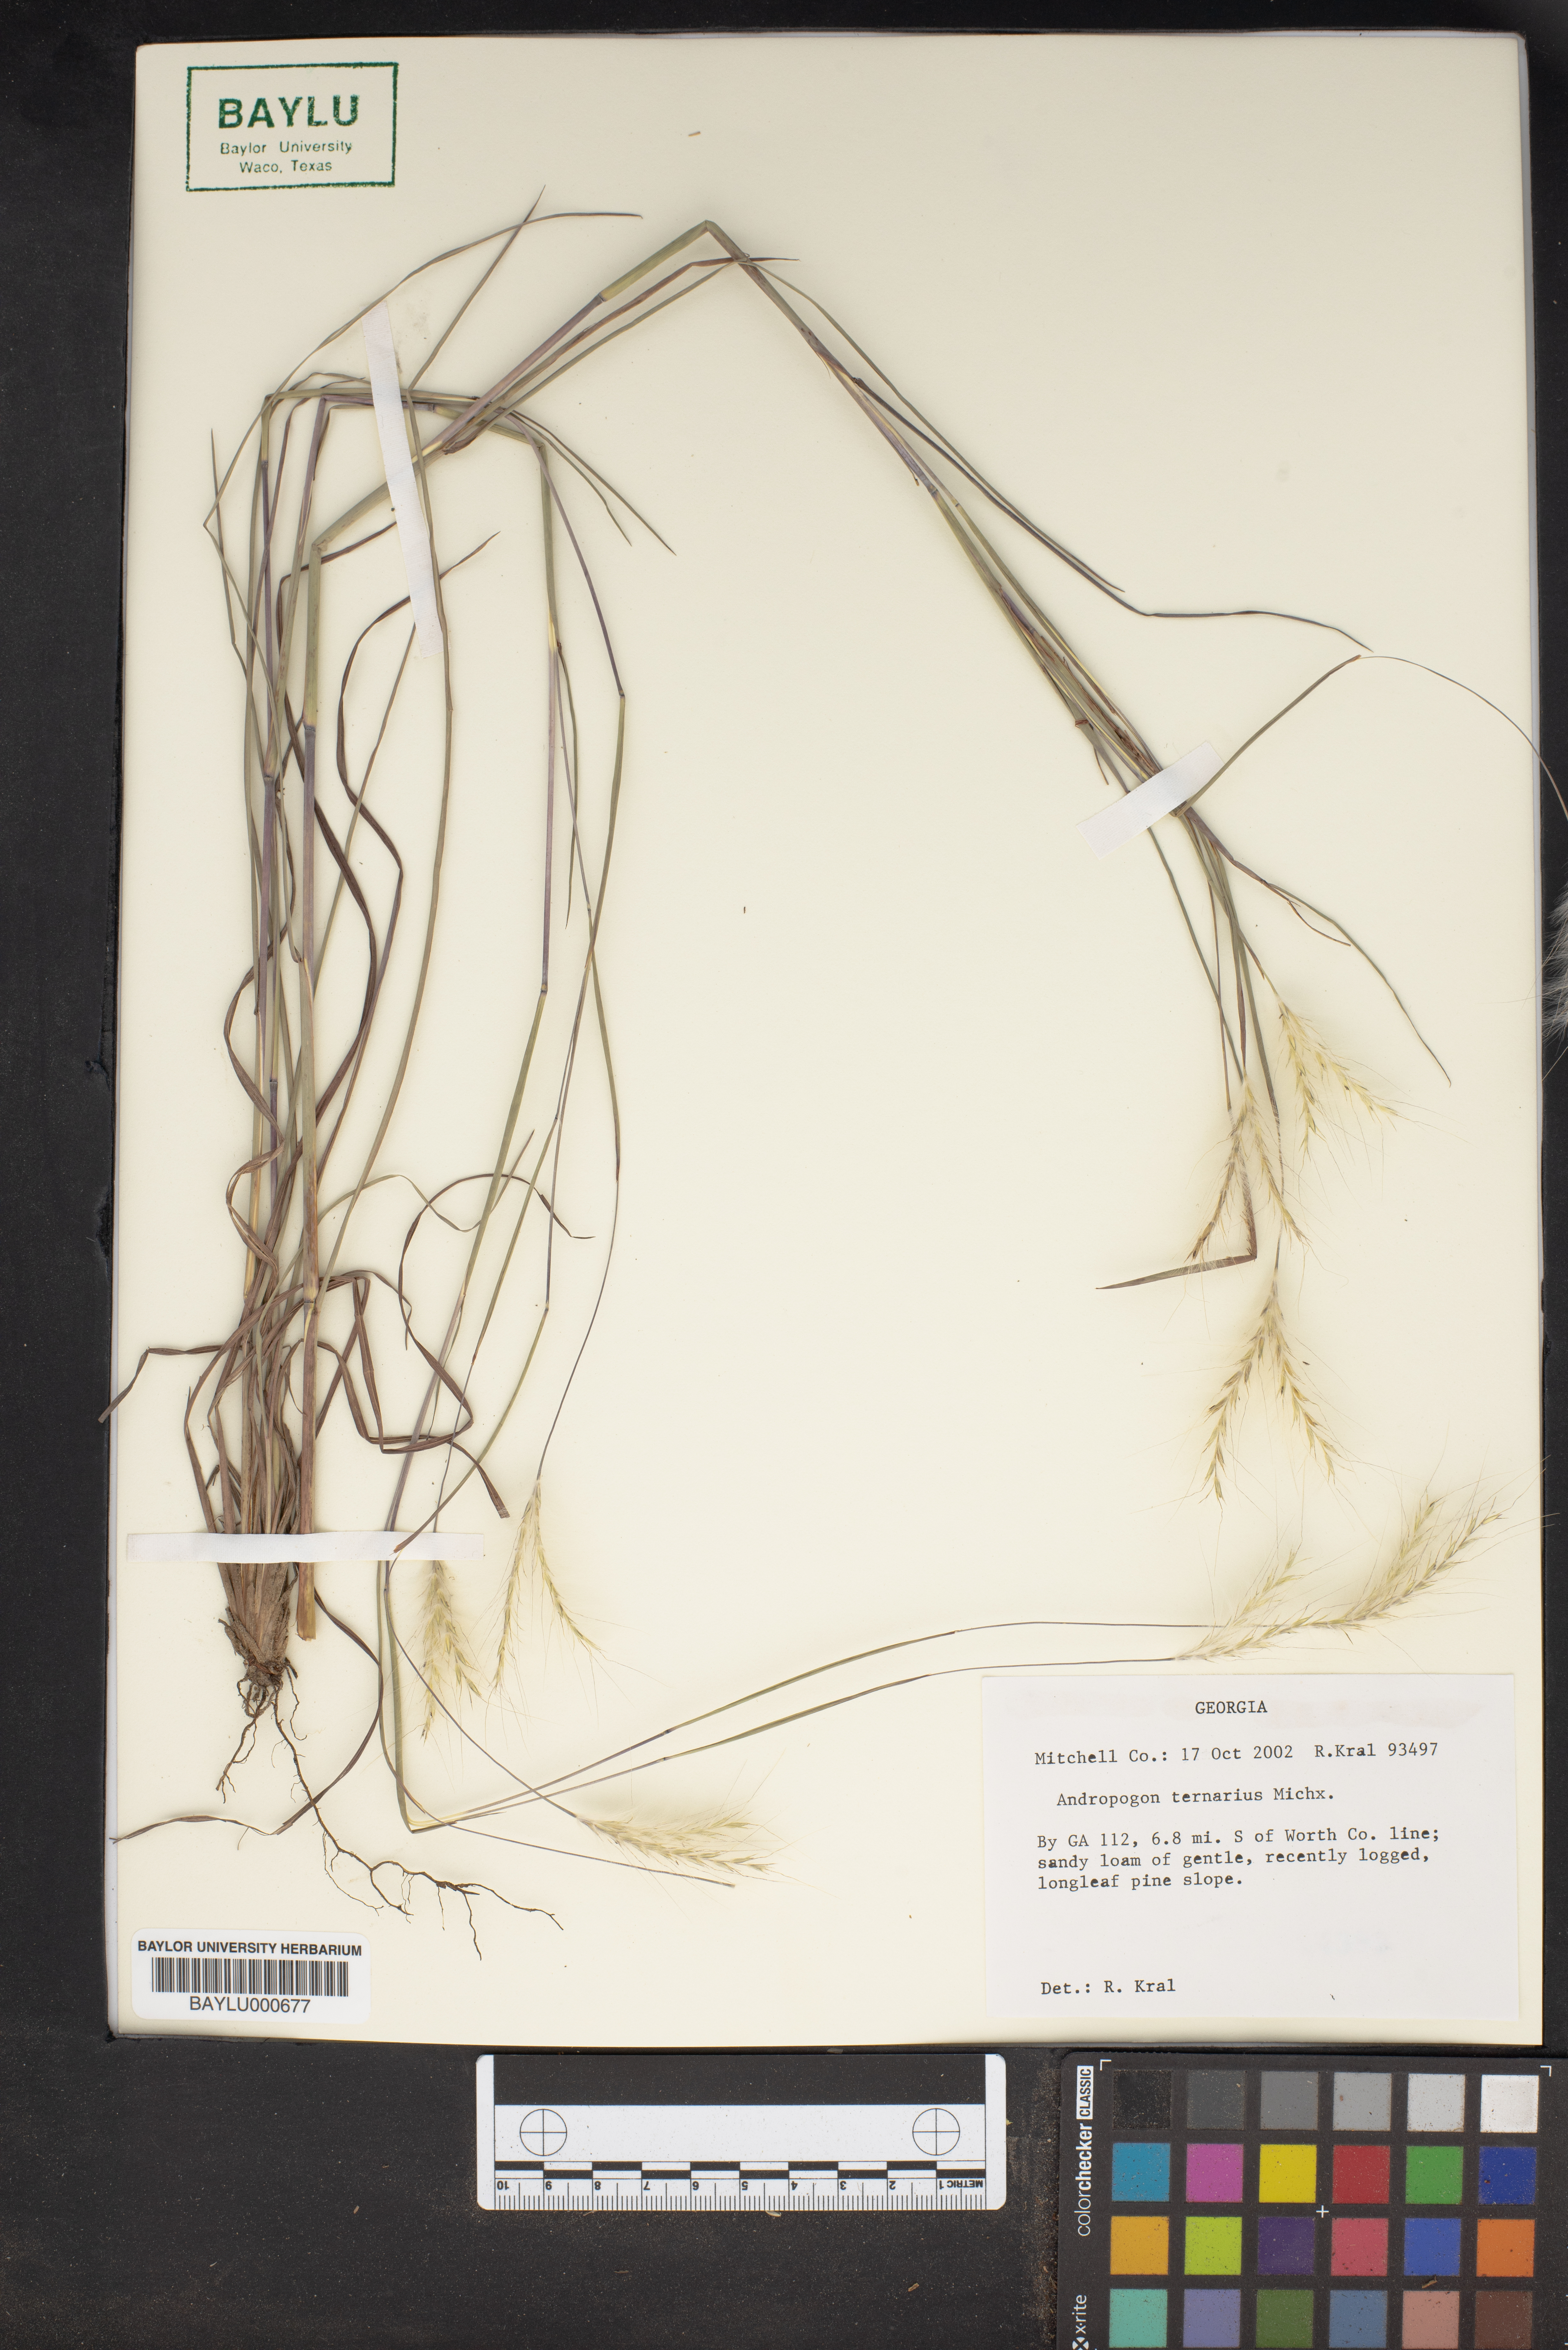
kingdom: Plantae
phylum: Tracheophyta
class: Liliopsida
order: Poales
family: Poaceae
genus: Andropogon
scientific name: Andropogon ternarius
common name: Split bluestem
